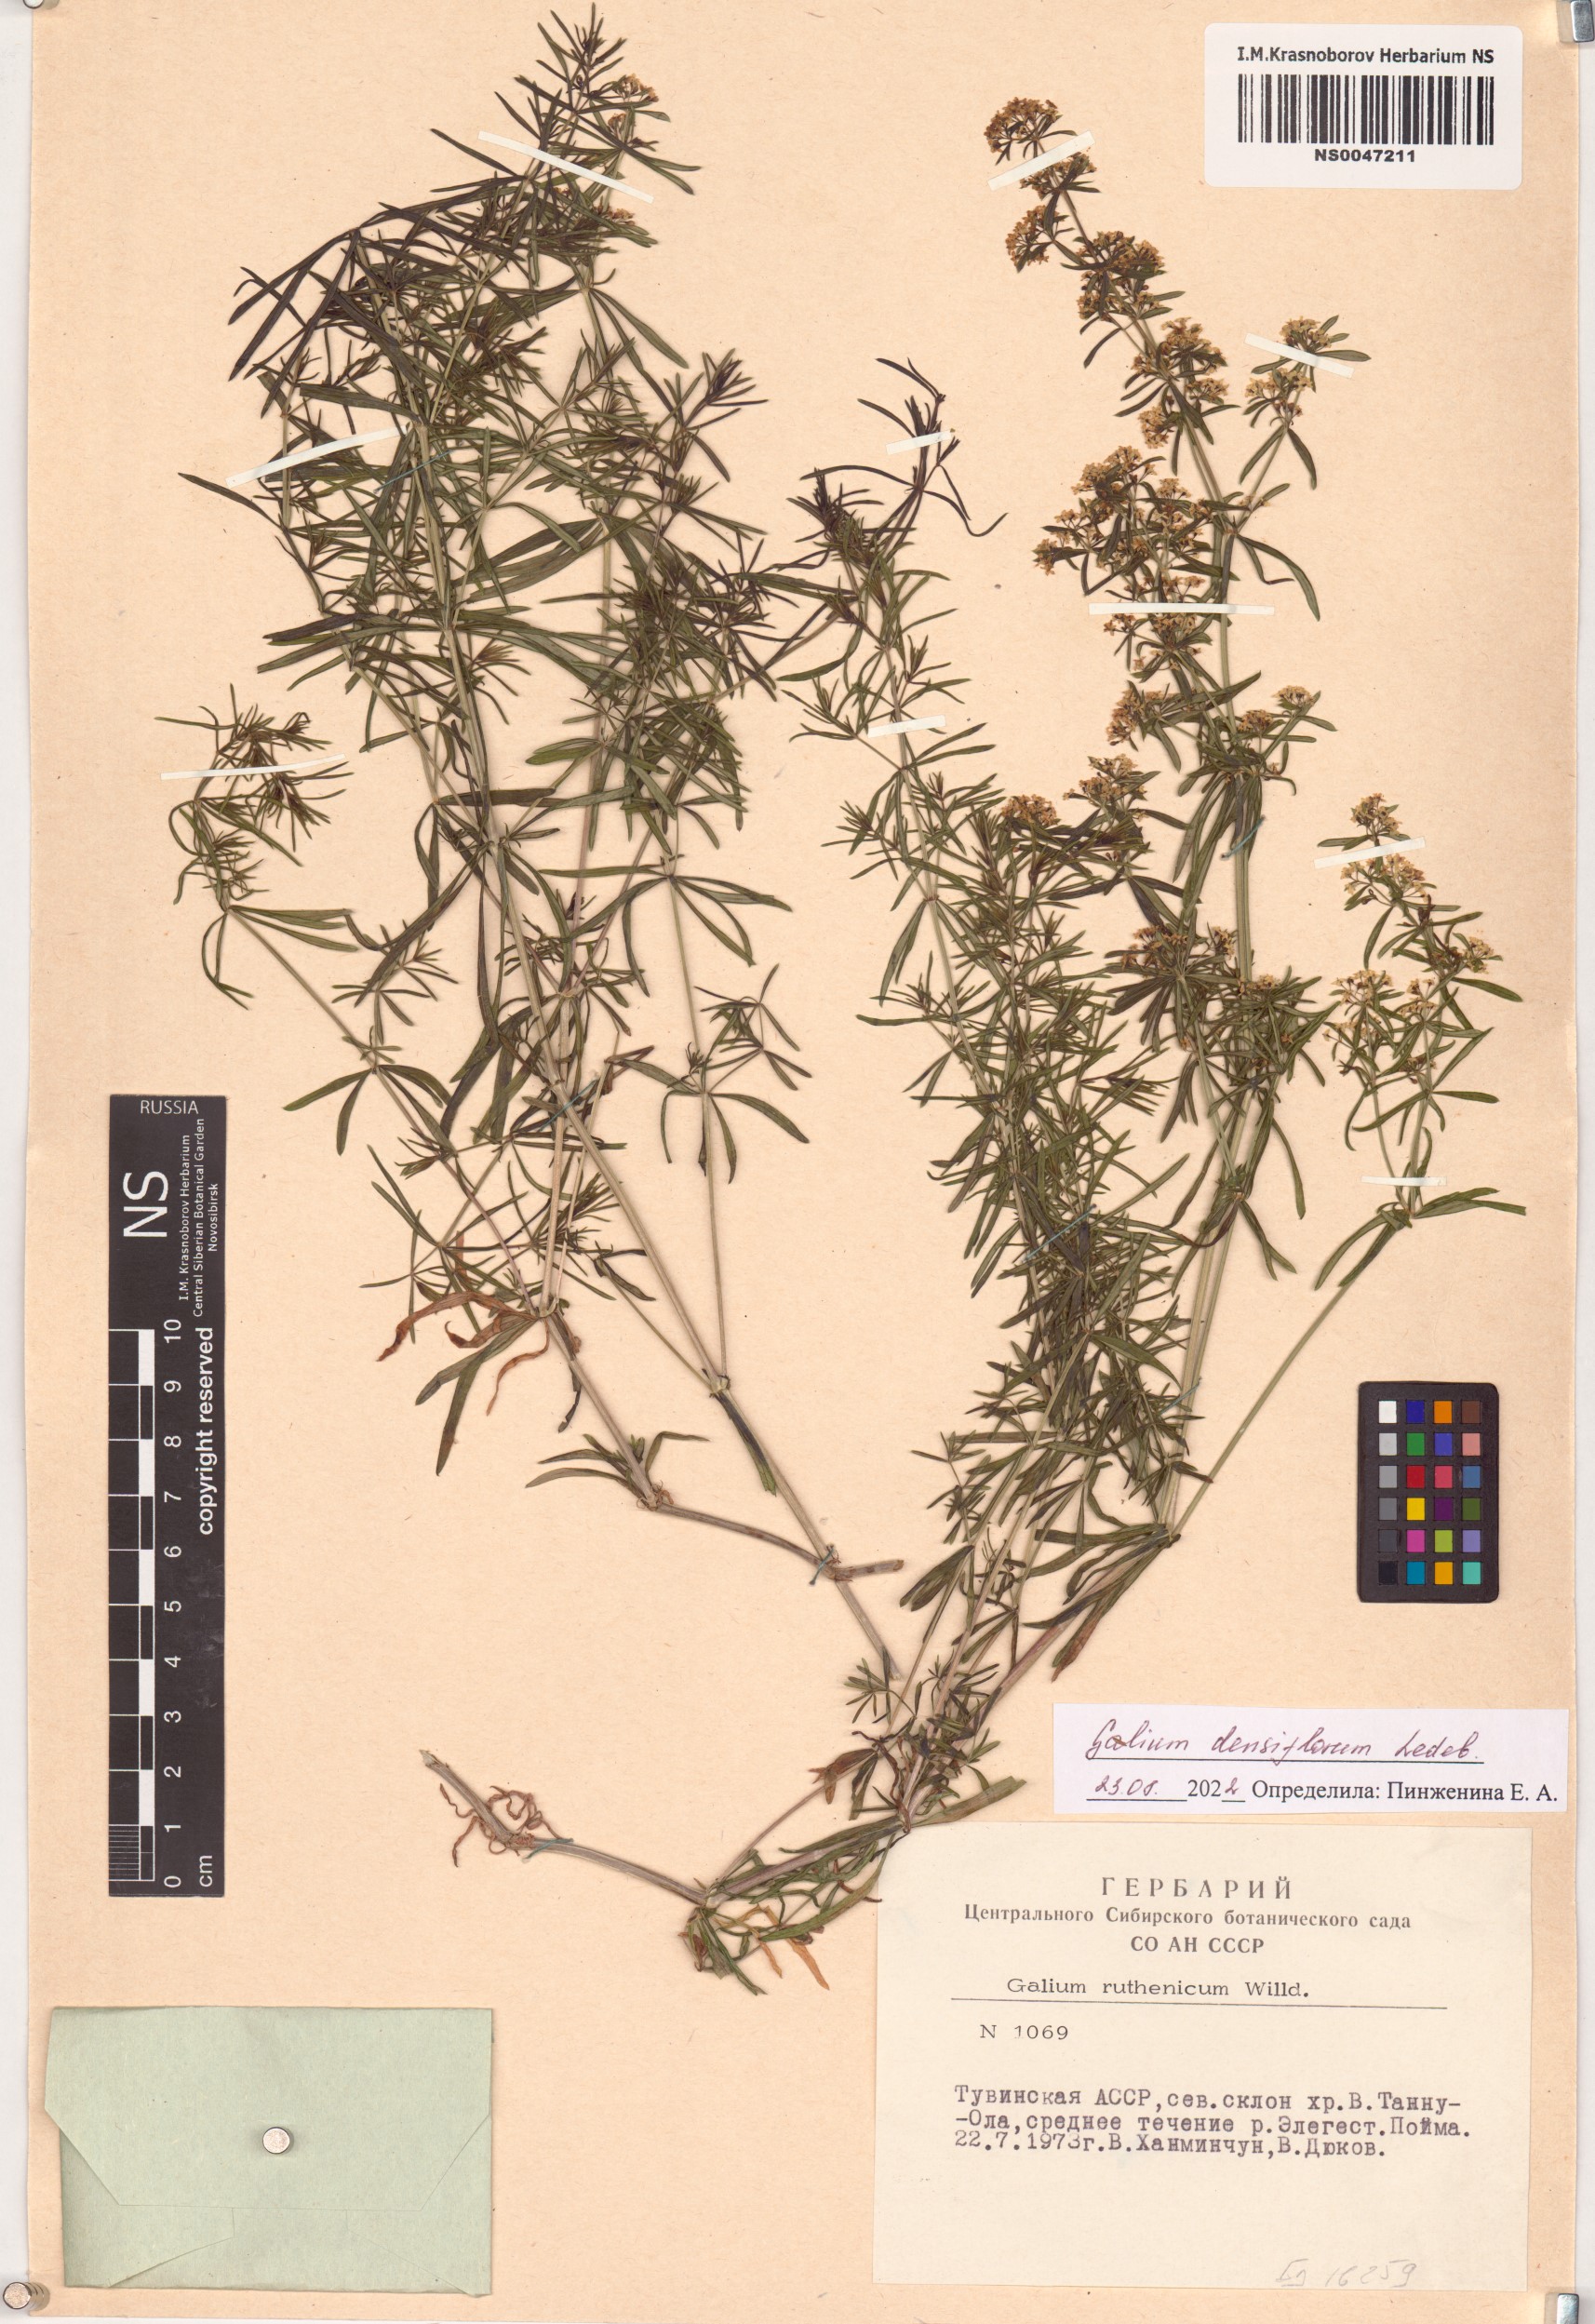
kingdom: Plantae
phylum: Tracheophyta
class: Magnoliopsida
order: Gentianales
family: Rubiaceae
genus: Galium
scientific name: Galium densiflorum
